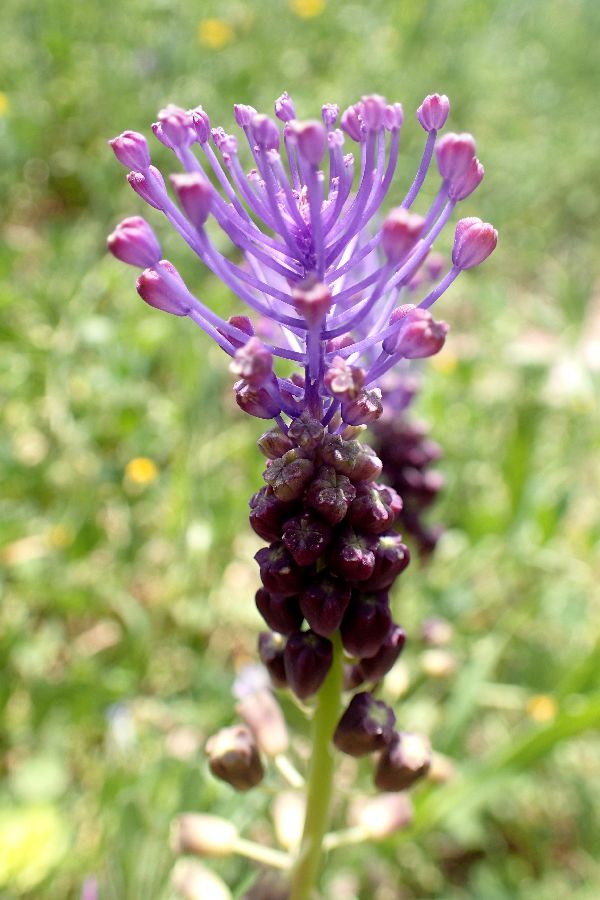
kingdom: Plantae
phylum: Tracheophyta
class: Liliopsida
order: Asparagales
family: Asparagaceae
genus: Muscari
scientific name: Muscari comosum
